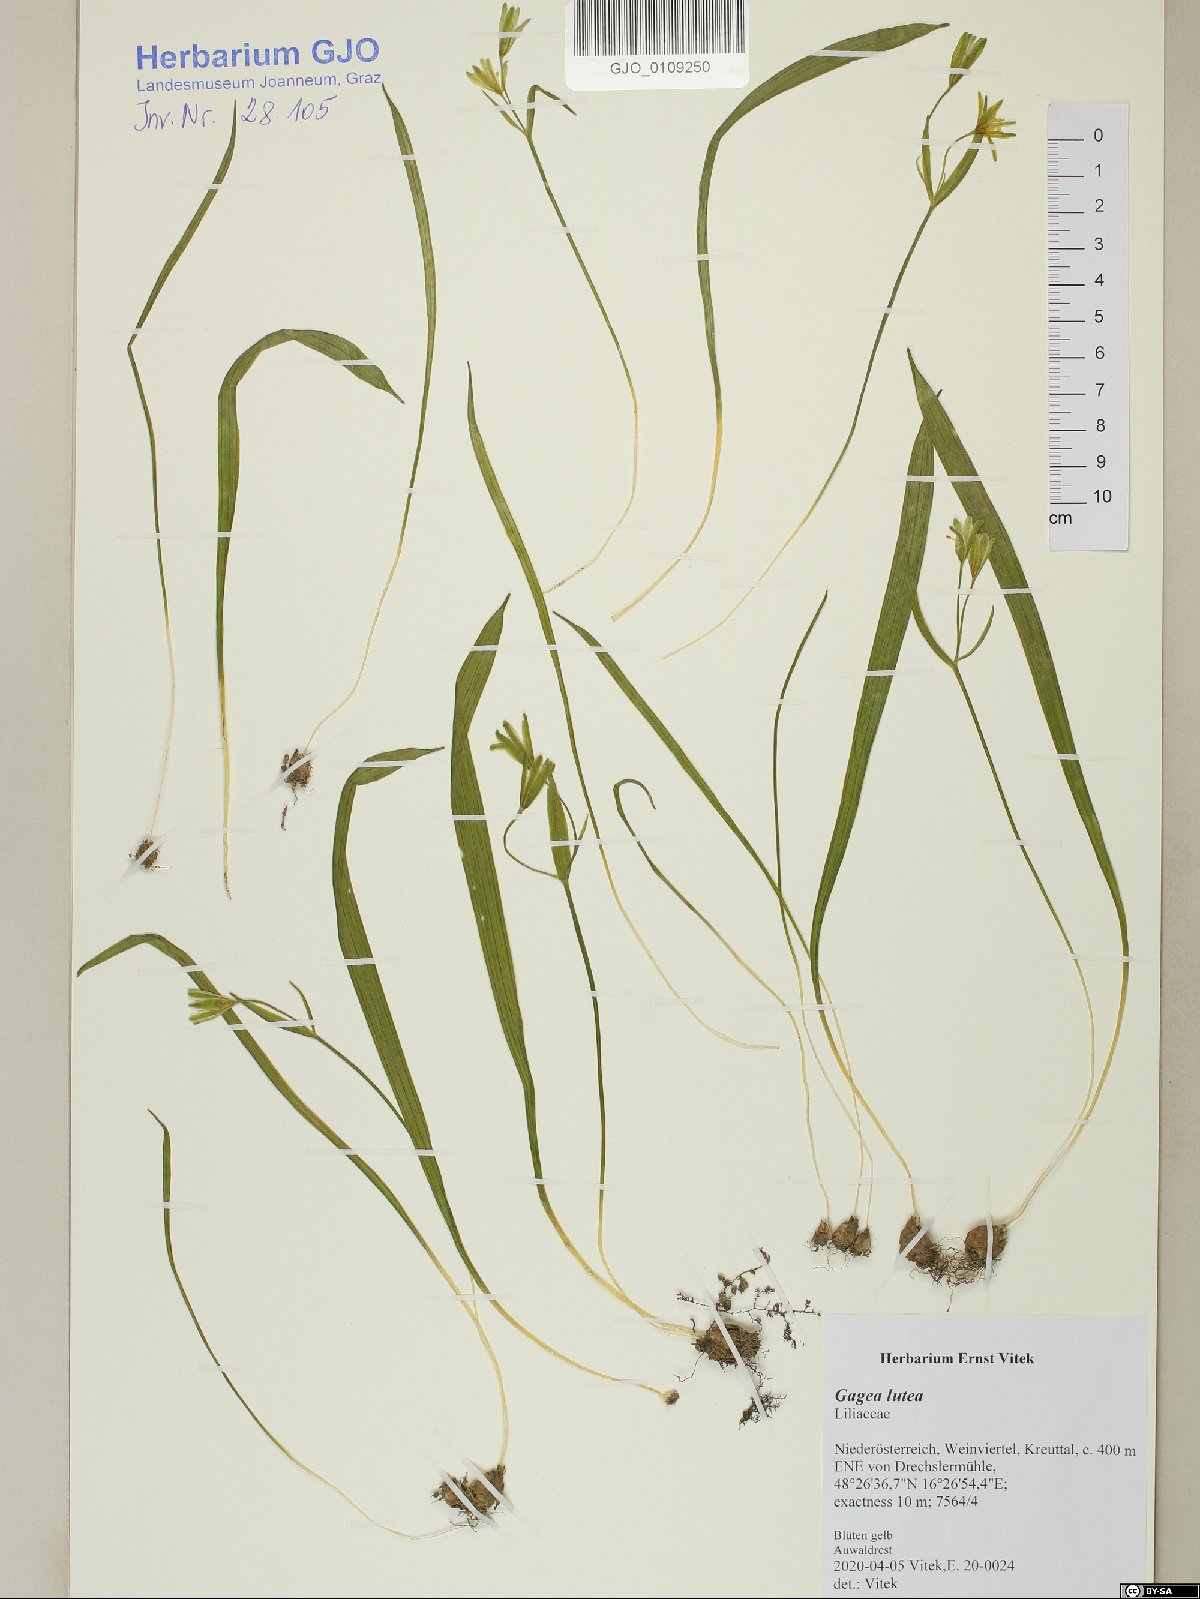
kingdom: Plantae
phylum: Tracheophyta
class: Liliopsida
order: Liliales
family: Liliaceae
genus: Gagea
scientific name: Gagea lutea
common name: Yellow star-of-bethlehem
